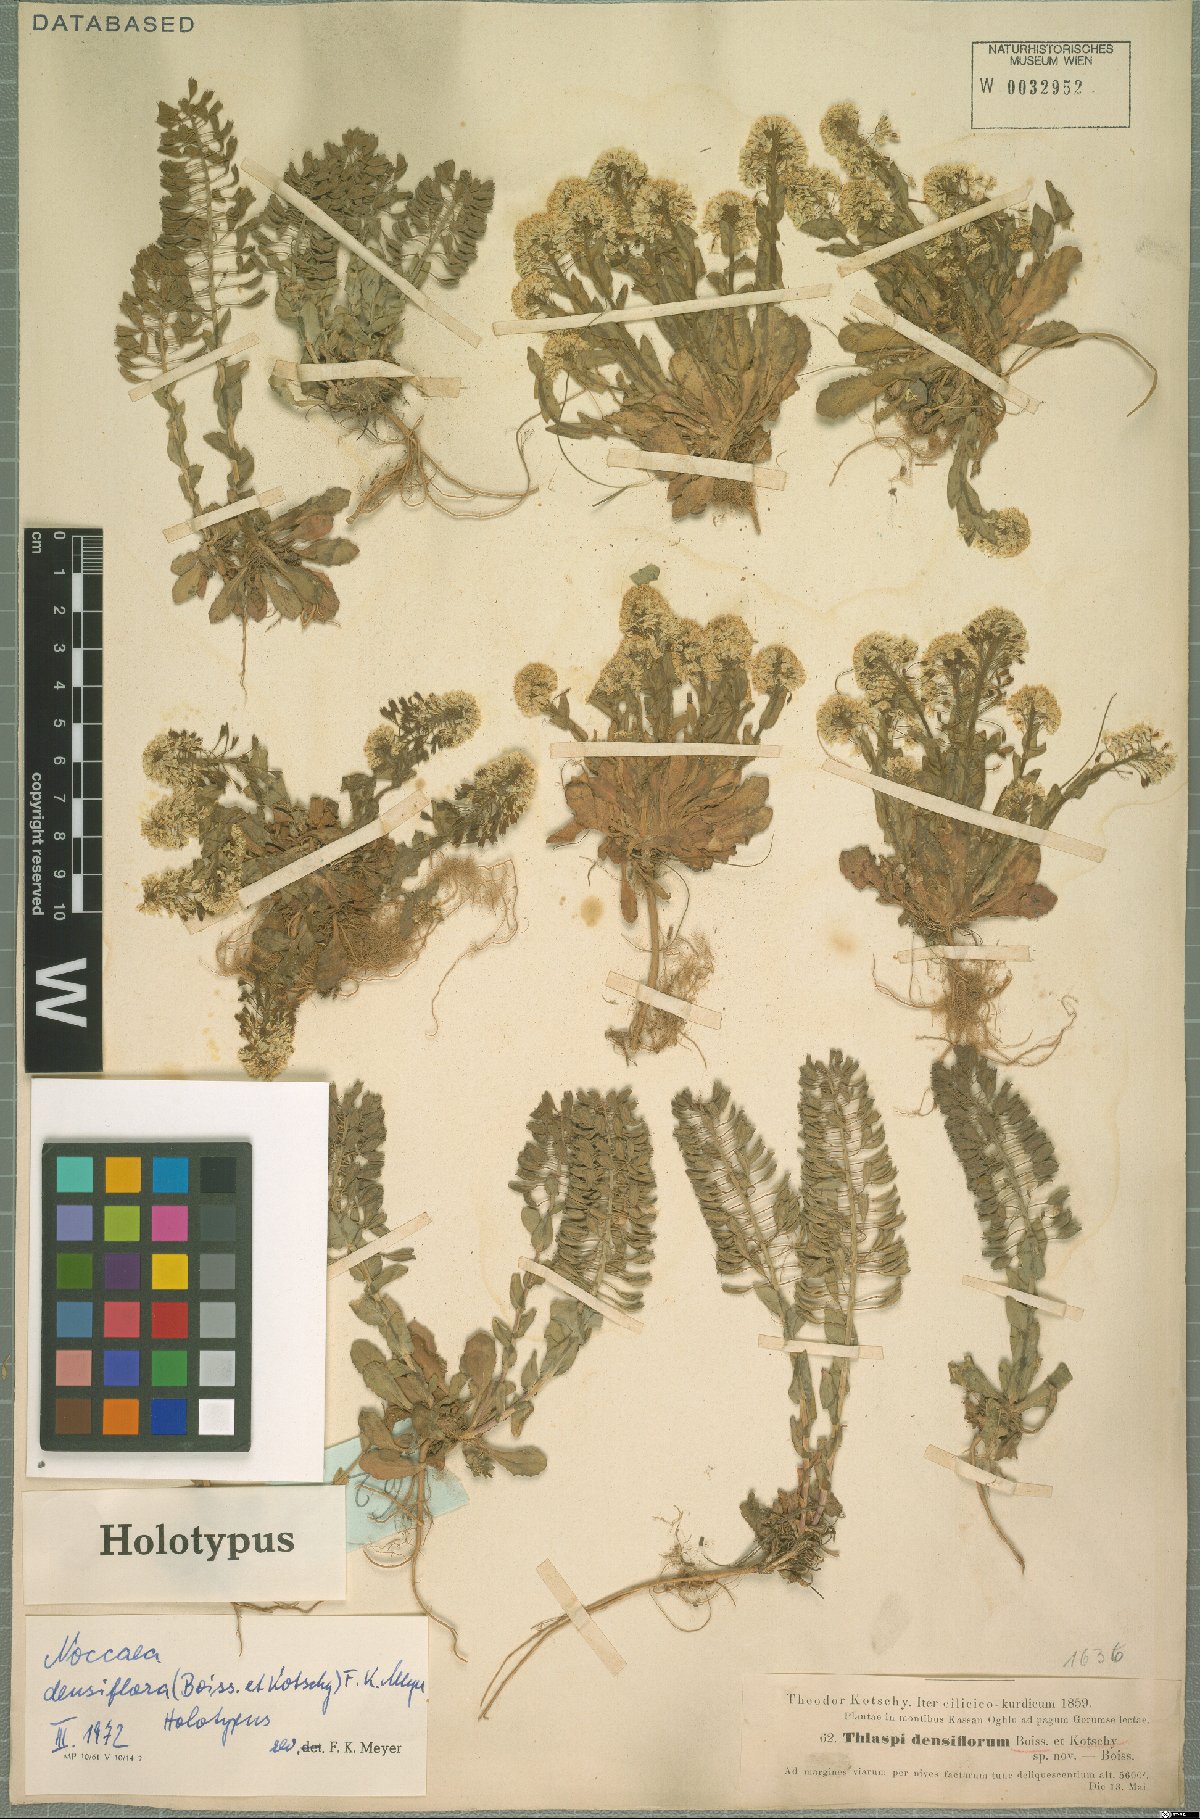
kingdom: Plantae
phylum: Tracheophyta
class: Magnoliopsida
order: Brassicales
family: Brassicaceae
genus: Noccaea
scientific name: Noccaea densiflora
